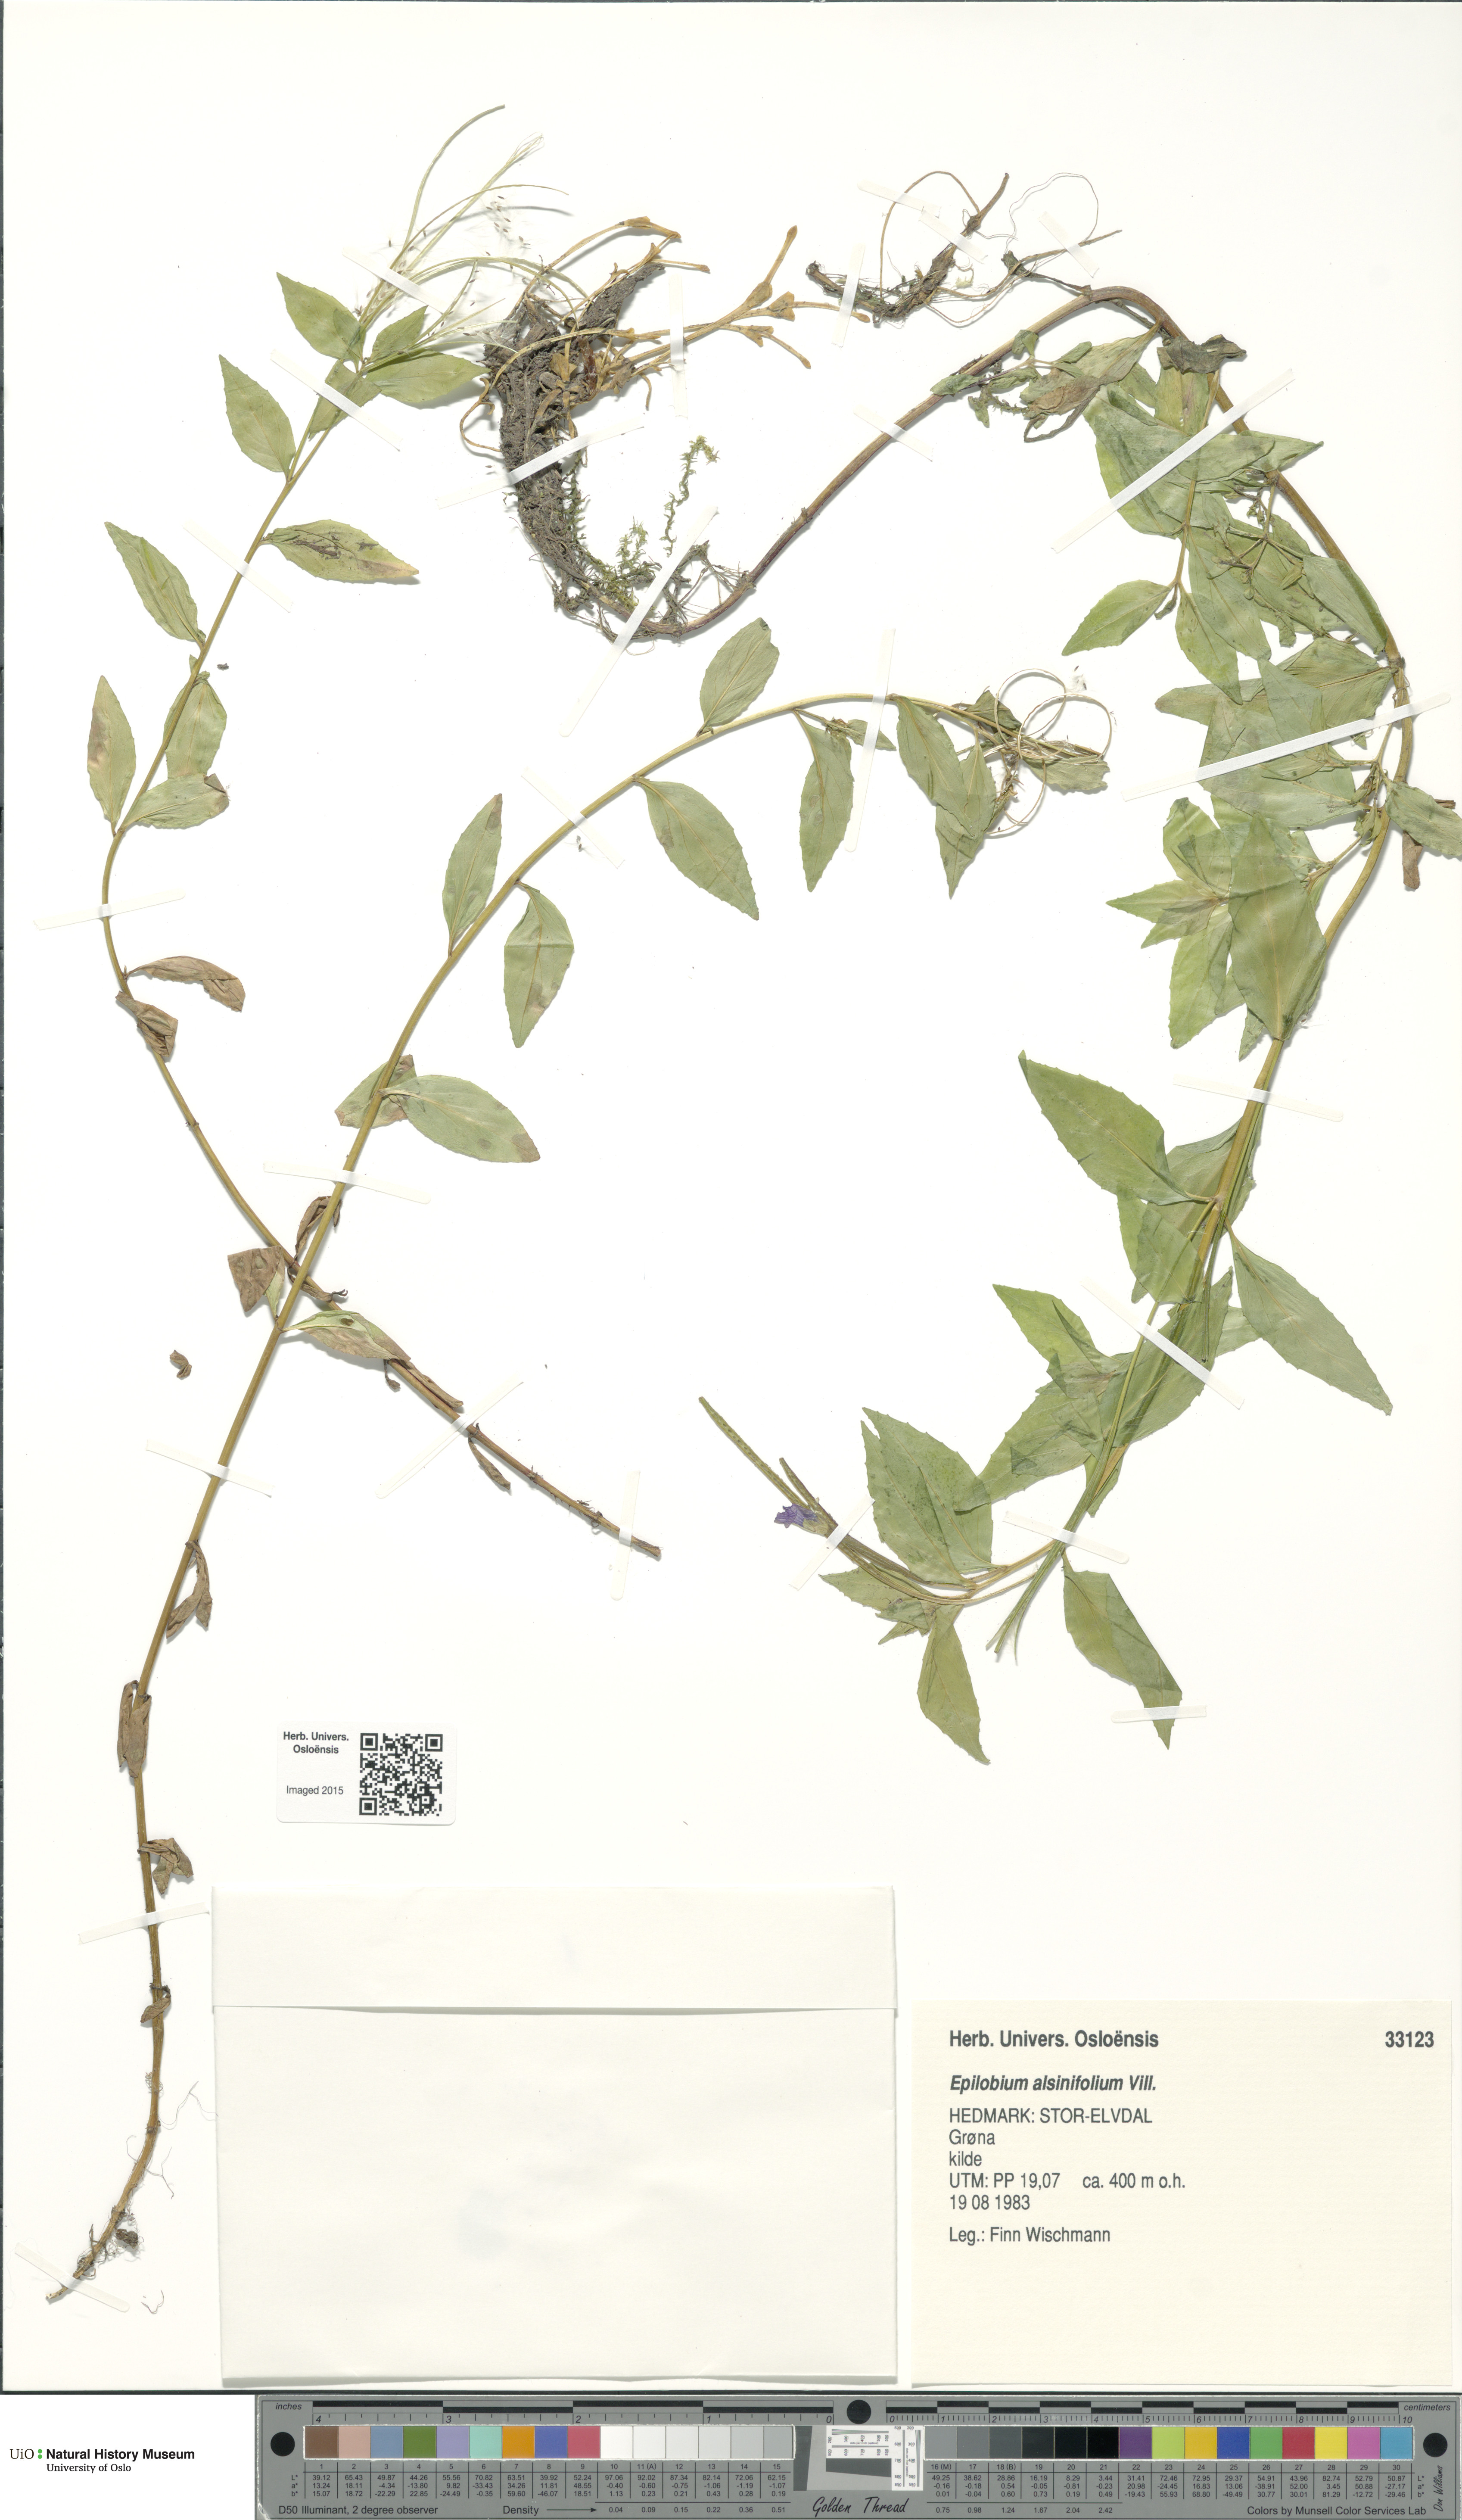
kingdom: Plantae
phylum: Tracheophyta
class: Magnoliopsida
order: Myrtales
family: Onagraceae
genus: Epilobium
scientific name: Epilobium alsinifolium
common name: Chickweed willowherb
